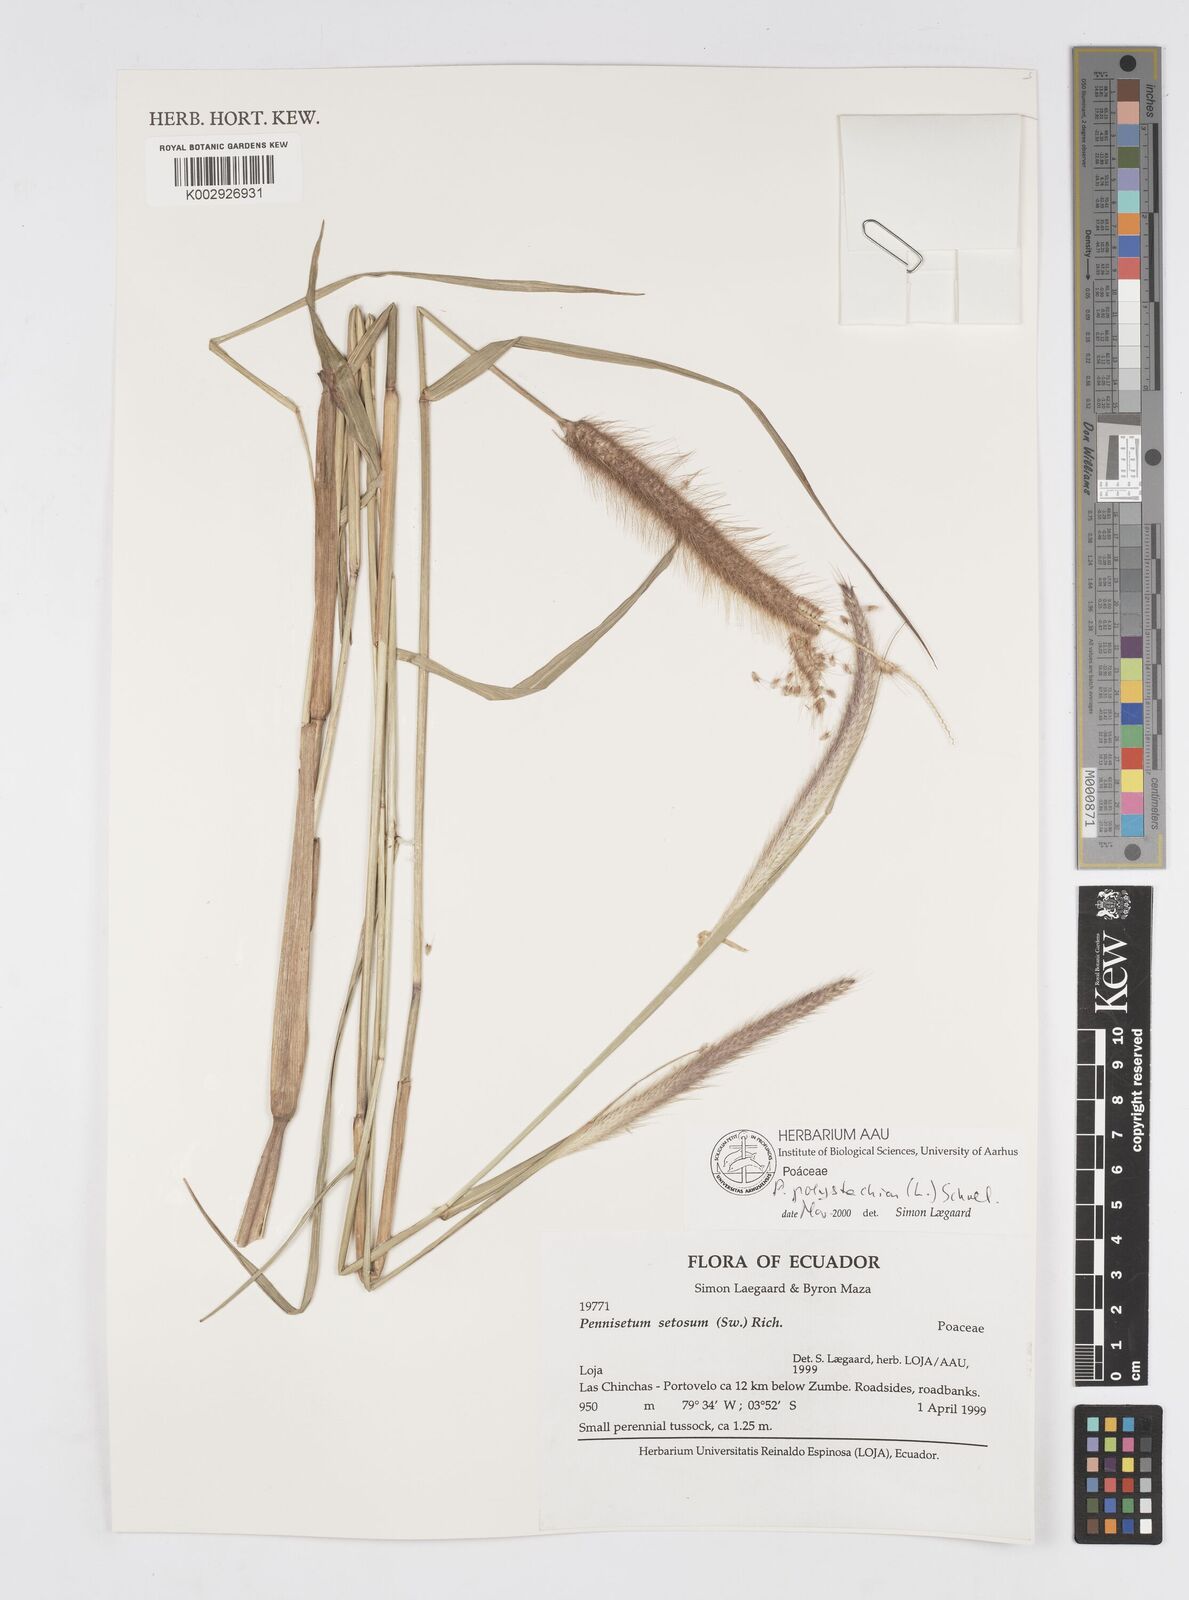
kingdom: Plantae
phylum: Tracheophyta
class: Liliopsida
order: Poales
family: Poaceae
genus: Setaria
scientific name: Setaria parviflora
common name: Knotroot bristle-grass
